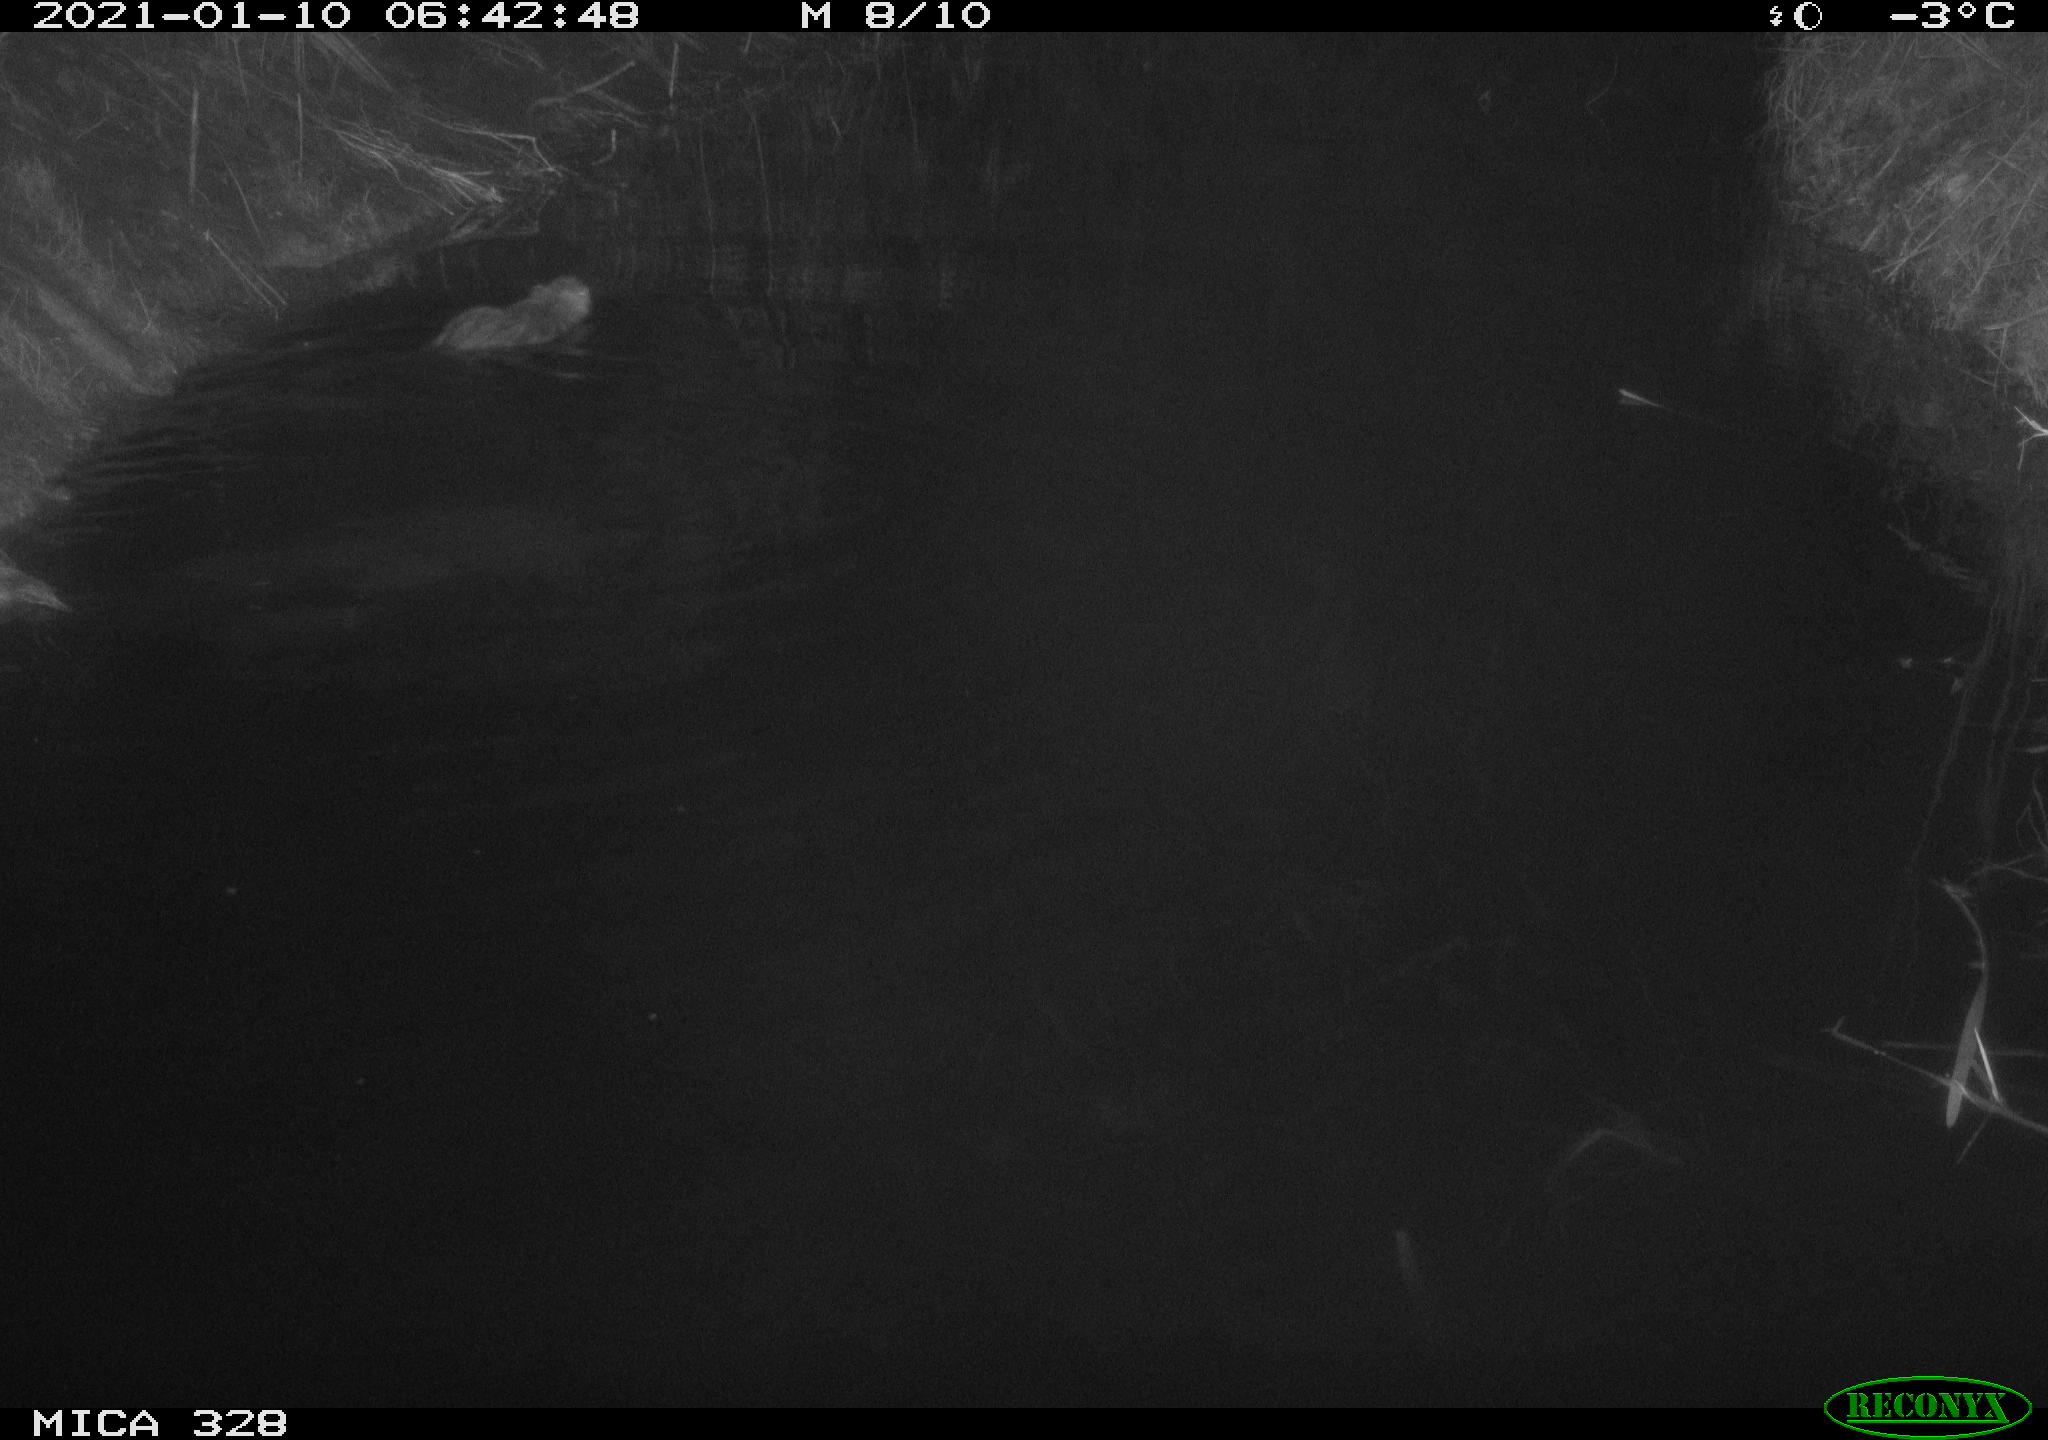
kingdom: Animalia
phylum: Chordata
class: Mammalia
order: Rodentia
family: Cricetidae
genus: Ondatra
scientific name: Ondatra zibethicus
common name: Muskrat
